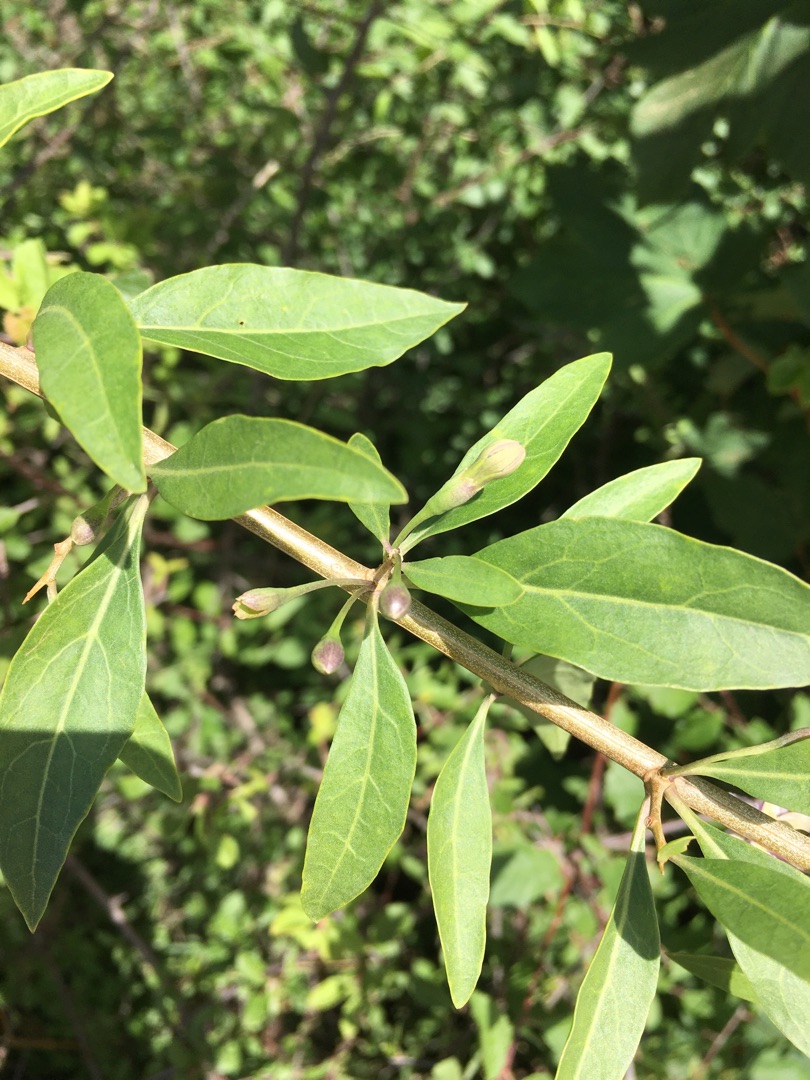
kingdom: Plantae
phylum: Tracheophyta
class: Magnoliopsida
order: Solanales
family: Solanaceae
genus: Lycium
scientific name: Lycium barbarum
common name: Bukketorn
